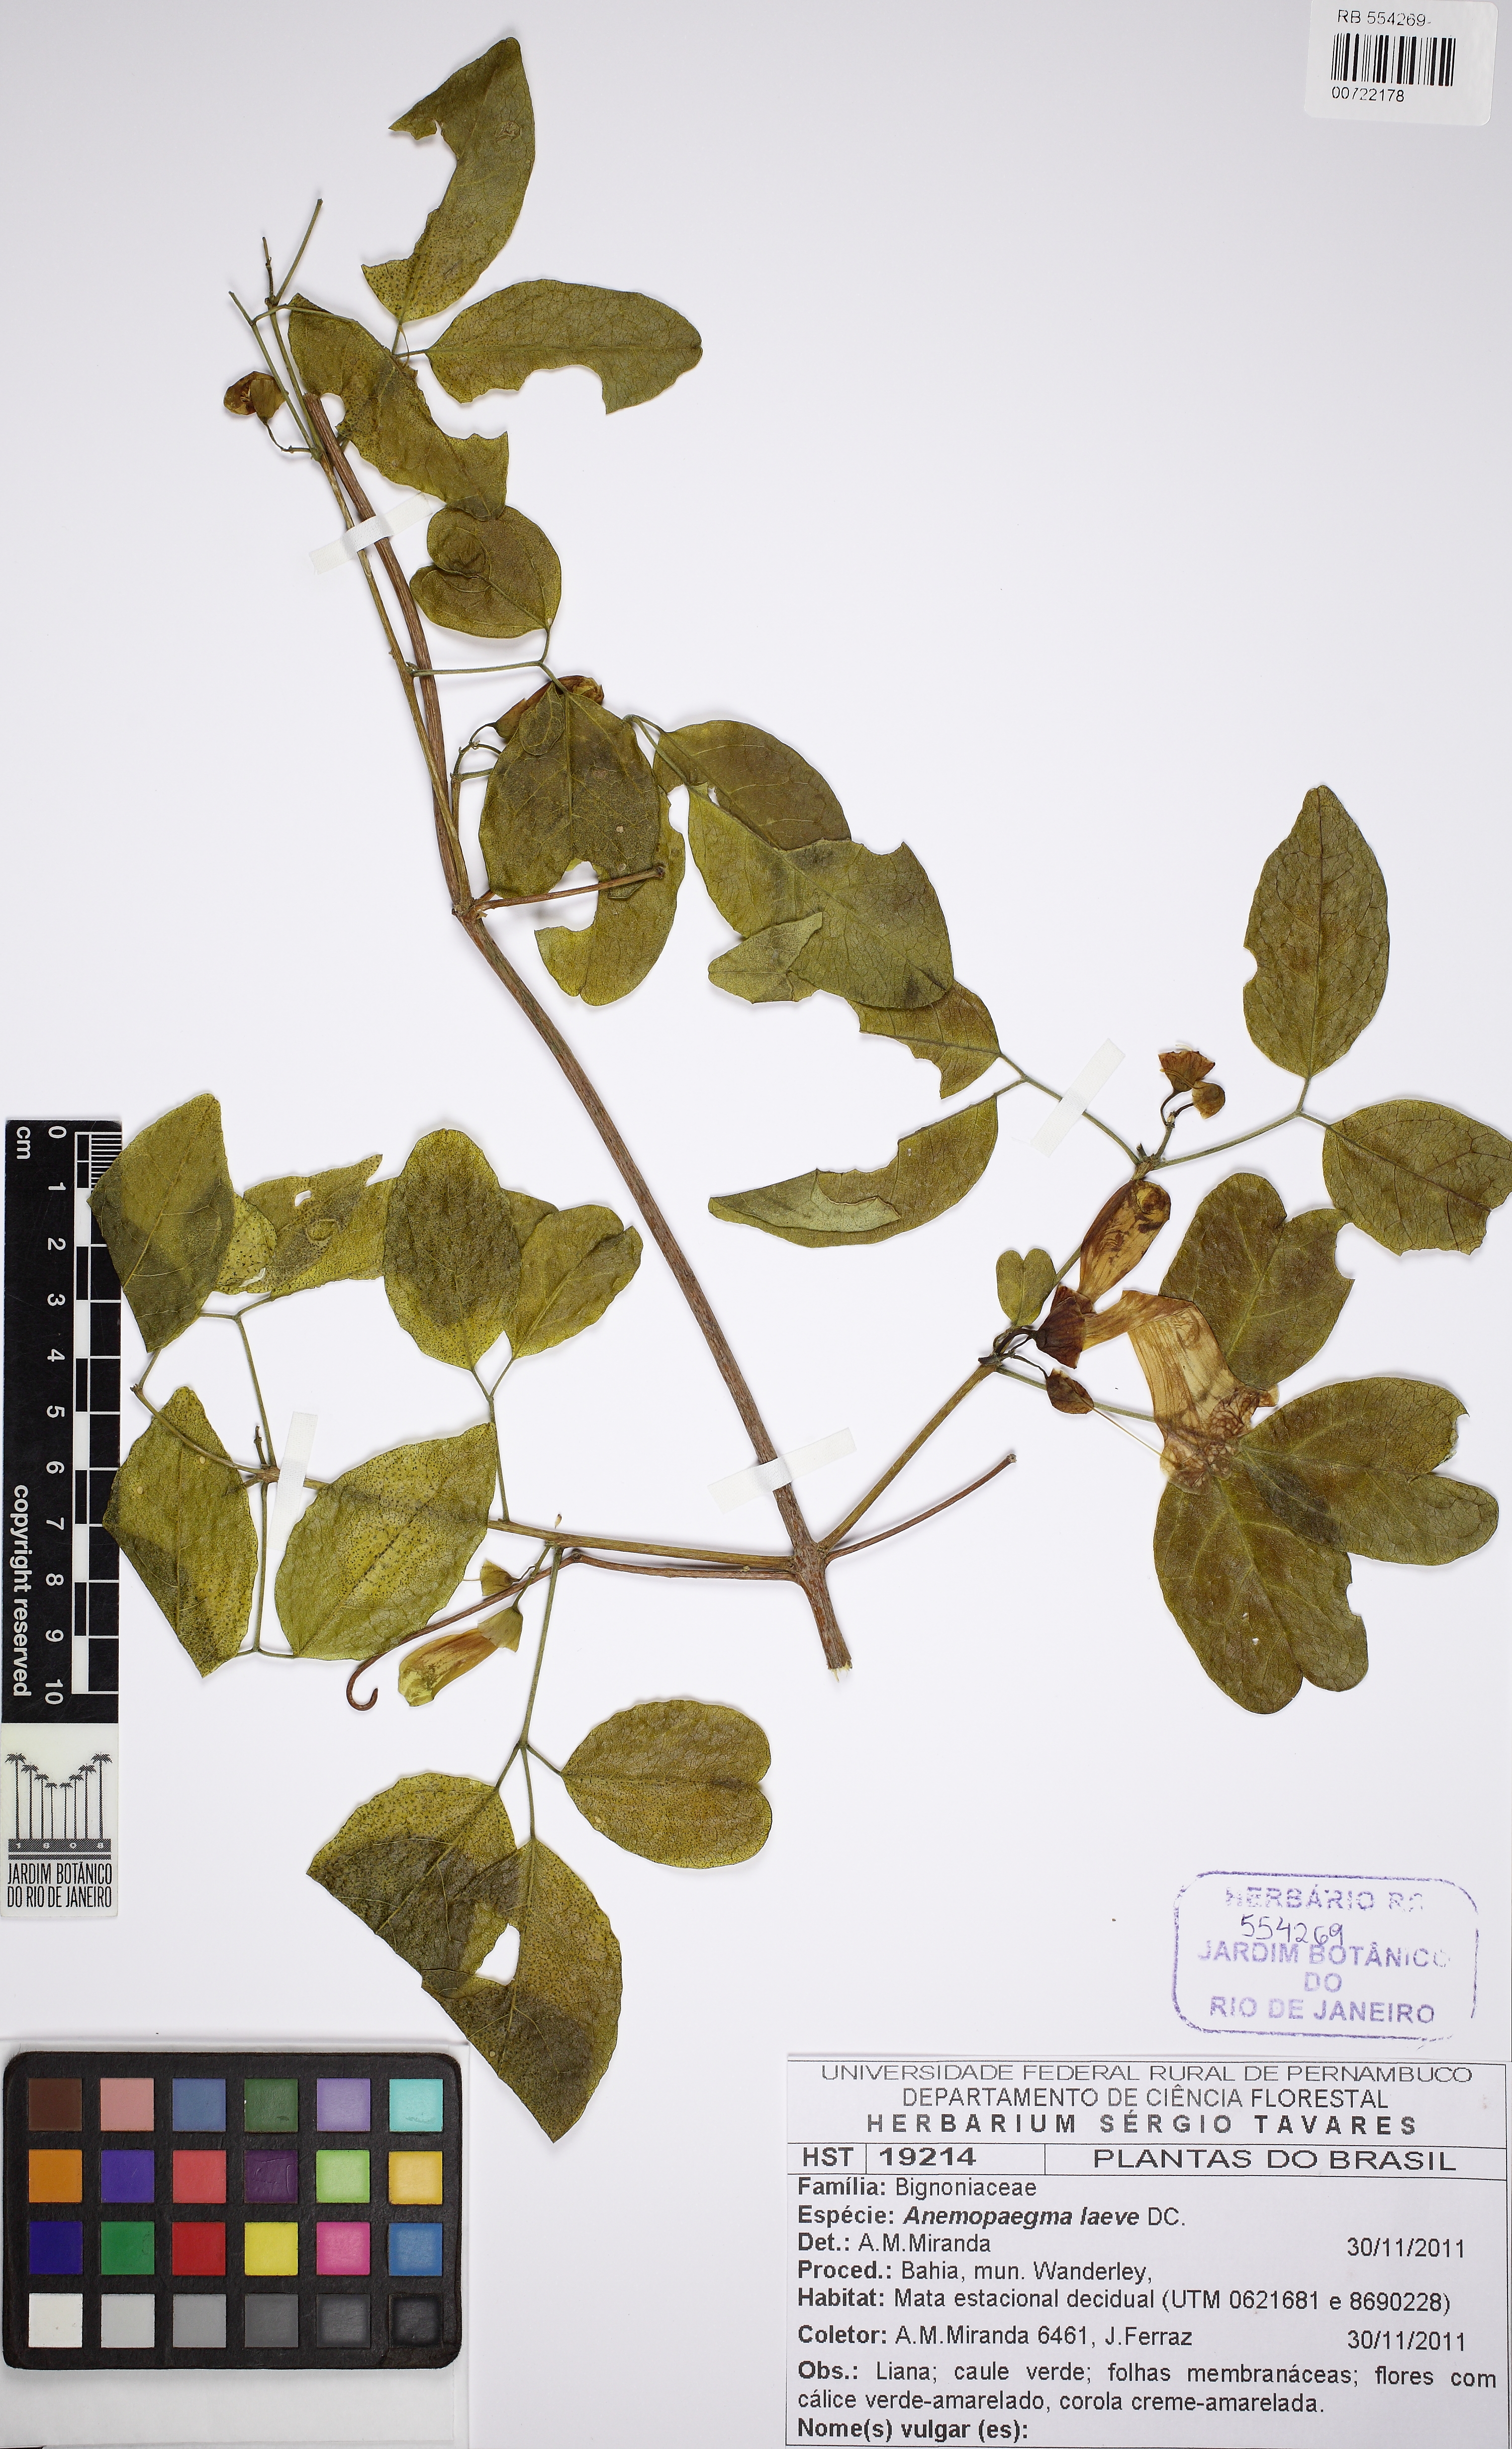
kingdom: Plantae
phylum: Tracheophyta
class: Magnoliopsida
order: Lamiales
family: Bignoniaceae
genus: Anemopaegma
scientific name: Anemopaegma laeve
